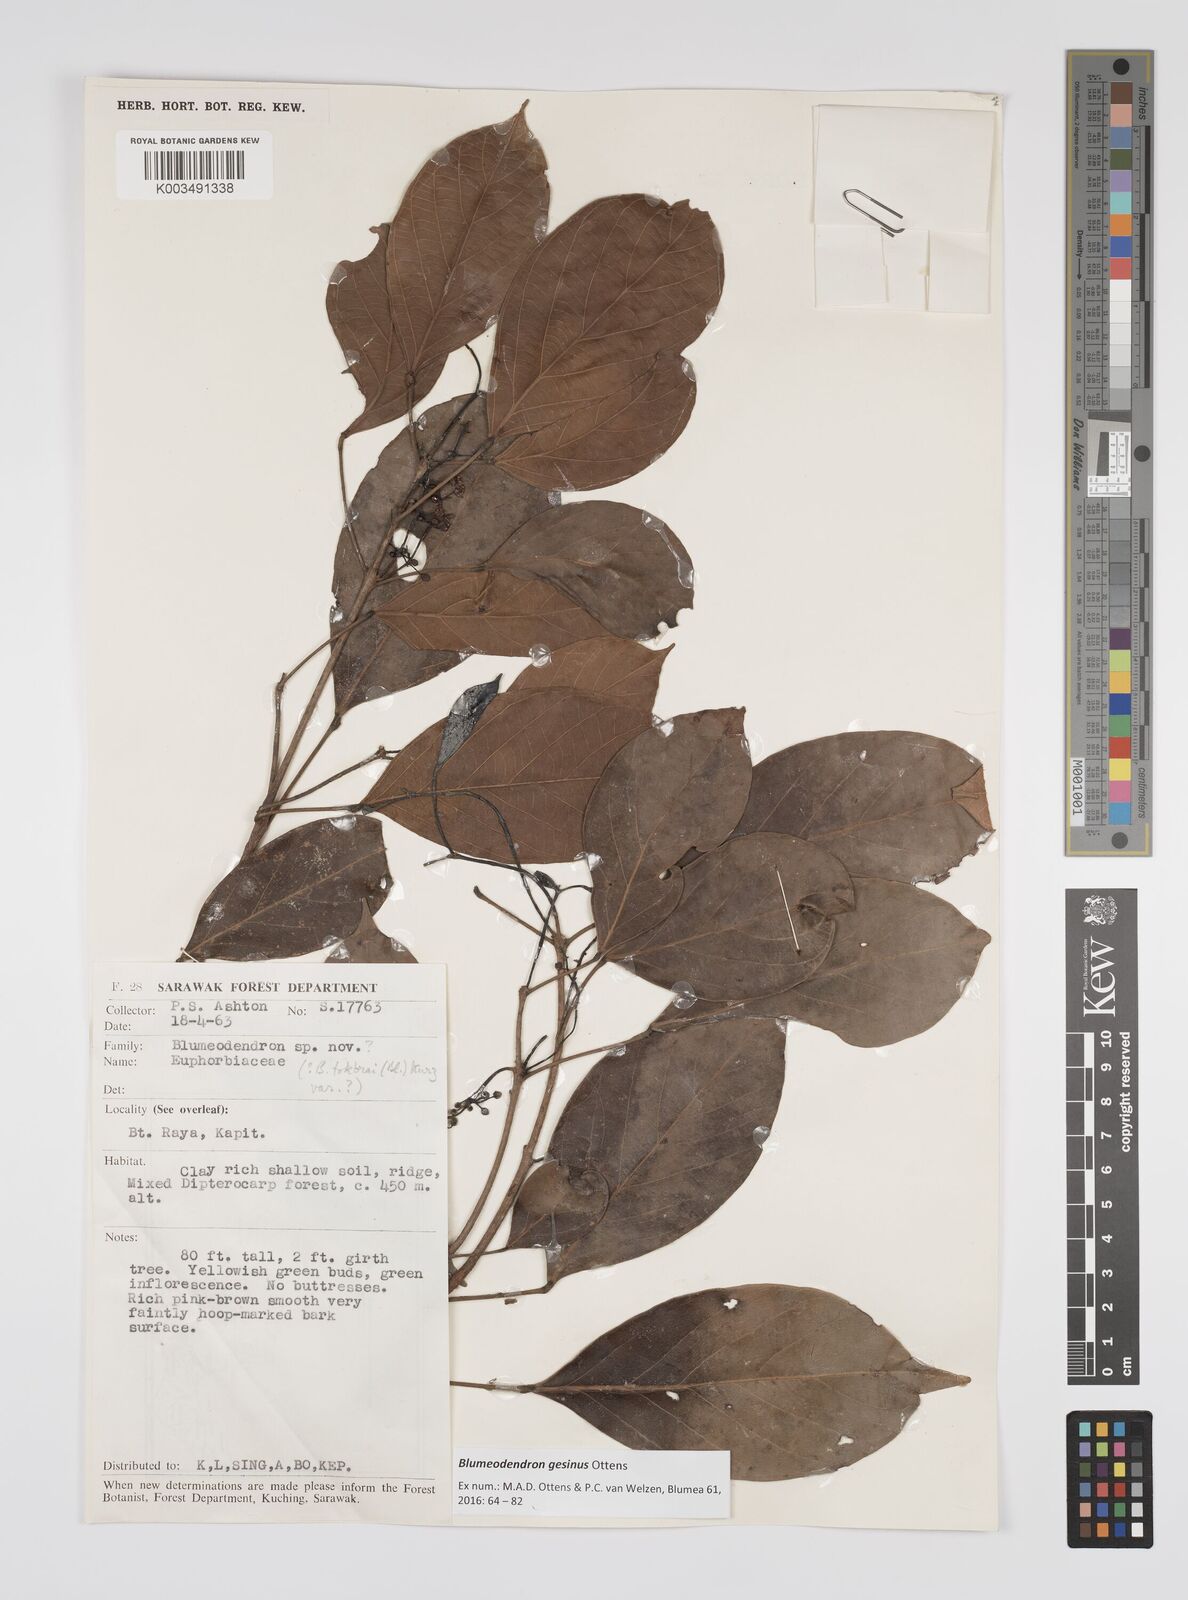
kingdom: Plantae
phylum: Tracheophyta
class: Magnoliopsida
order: Malpighiales
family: Euphorbiaceae
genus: Blumeodendron
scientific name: Blumeodendron gesinus
